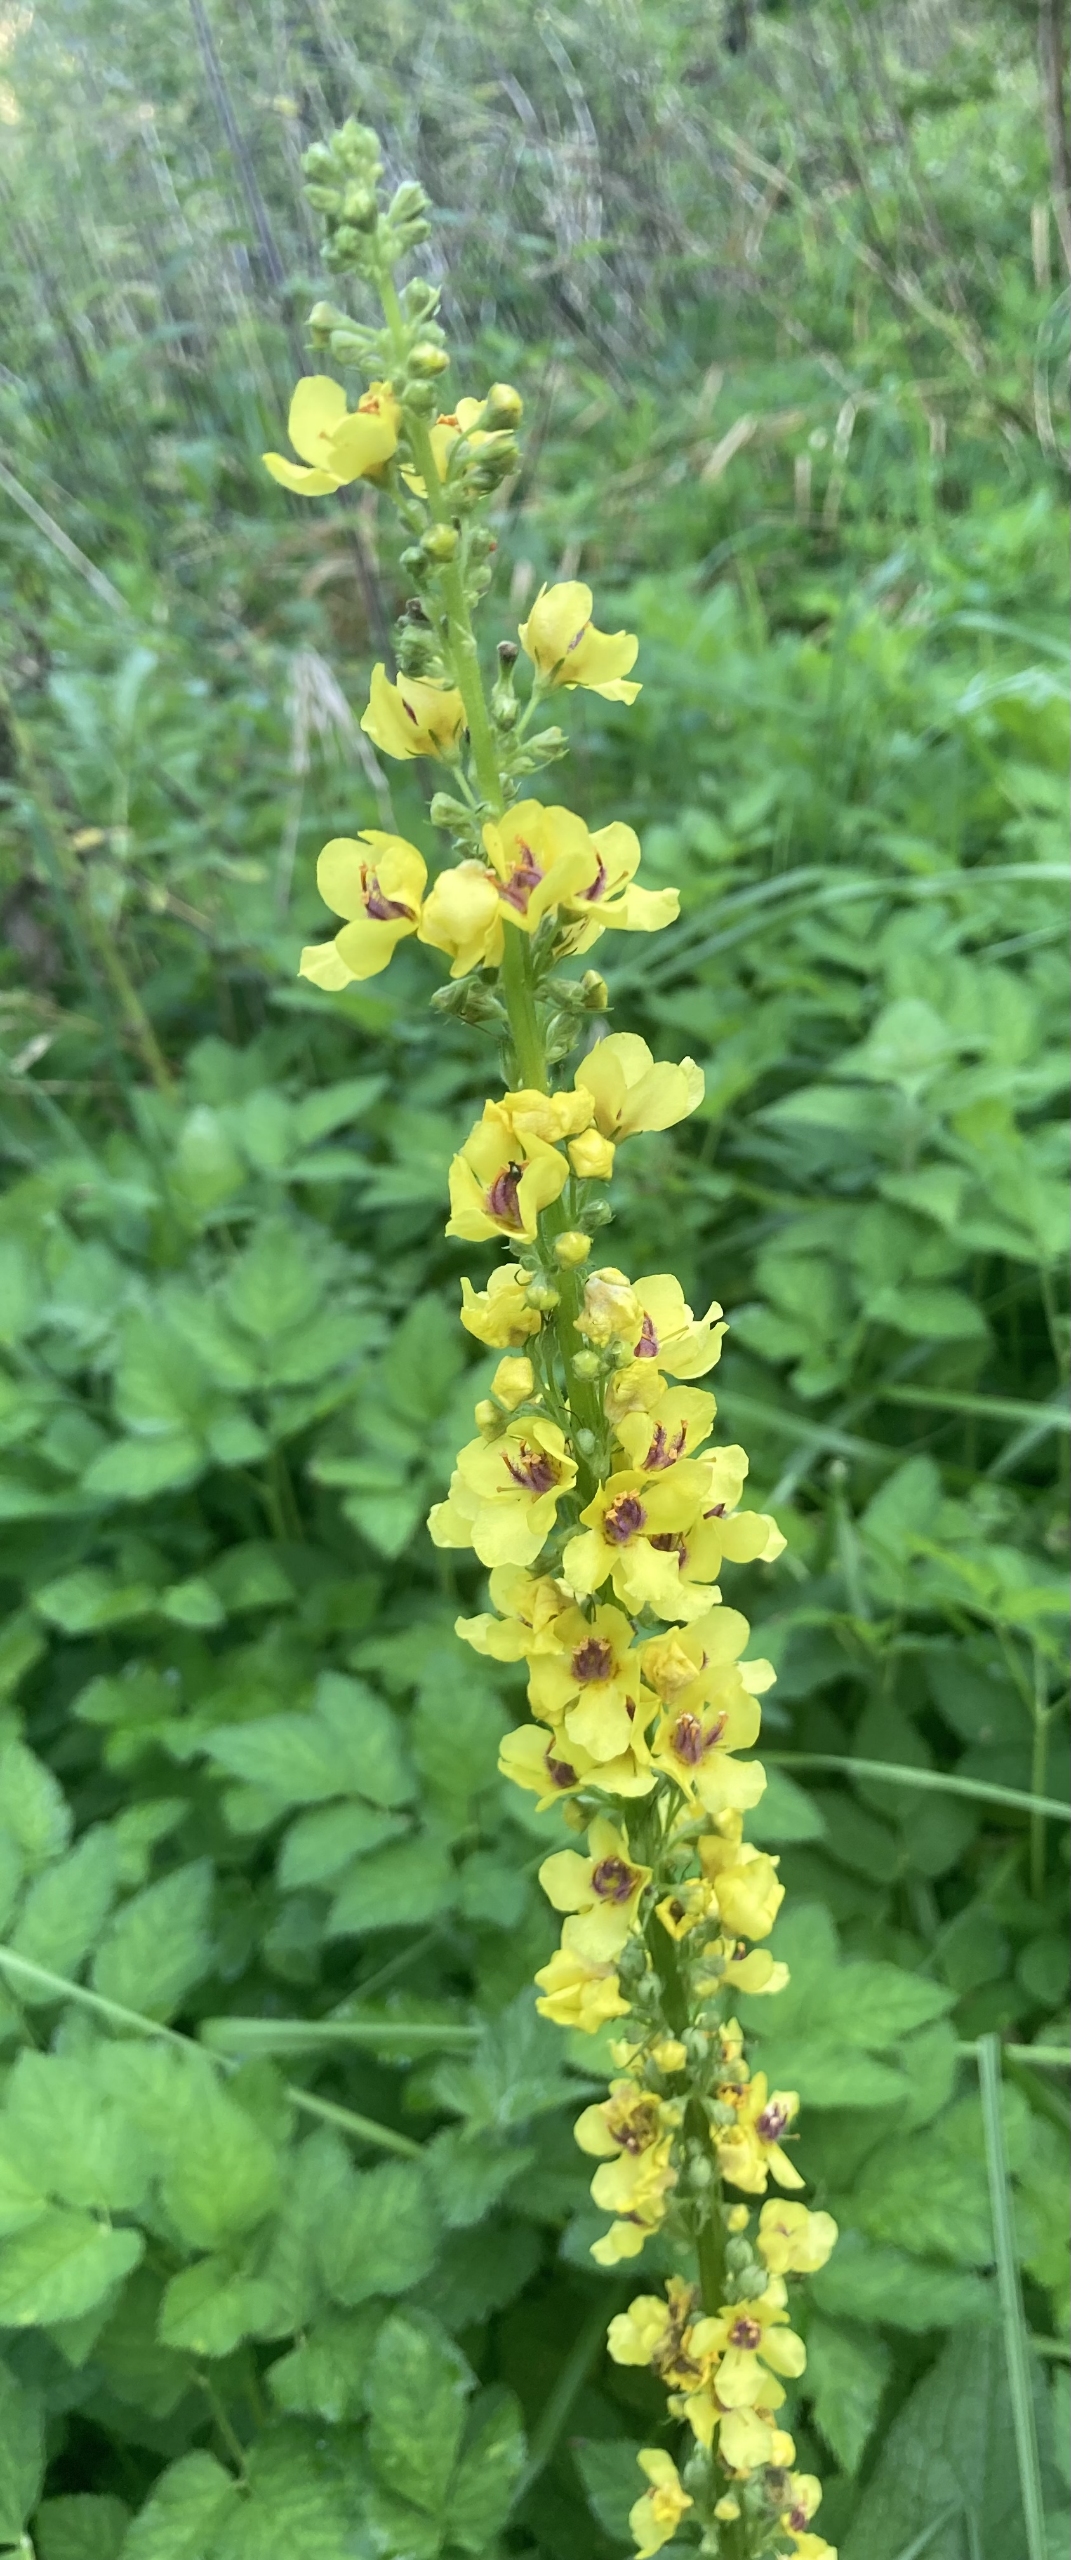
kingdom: Plantae
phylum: Tracheophyta
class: Magnoliopsida
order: Lamiales
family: Scrophulariaceae
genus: Verbascum
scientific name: Verbascum nigrum
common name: Mørk kongelys
